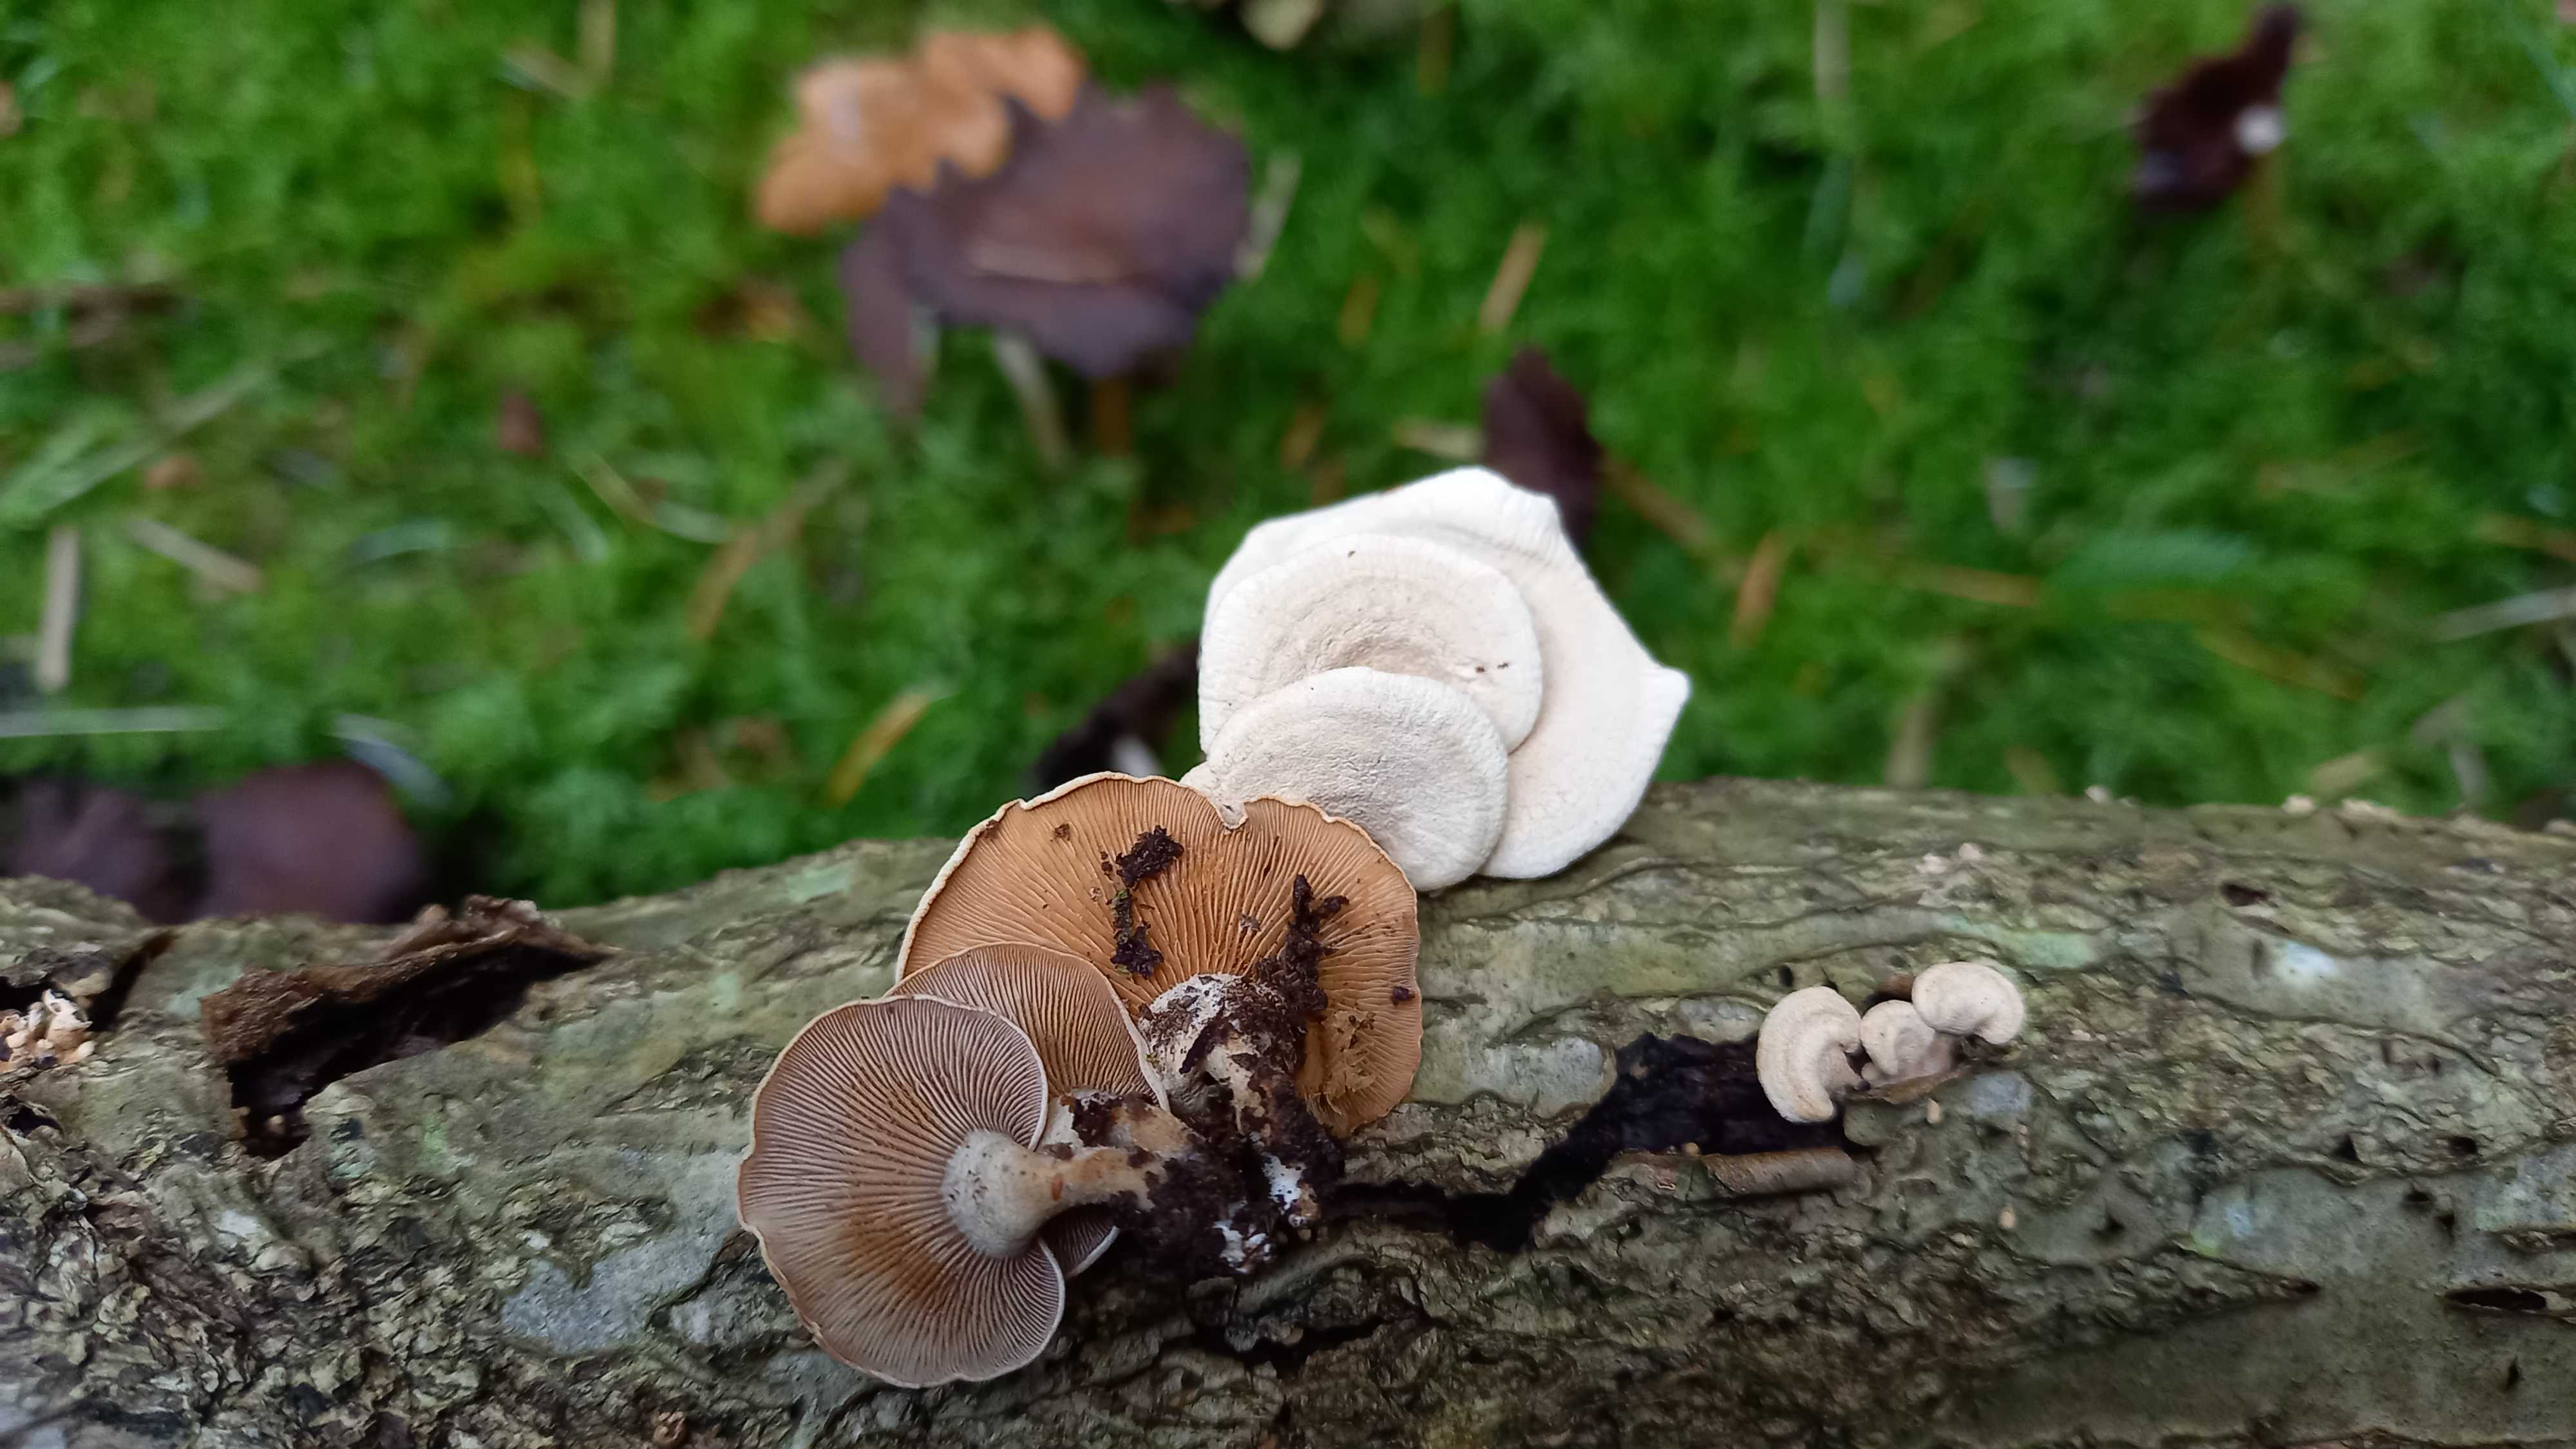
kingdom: Fungi
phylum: Basidiomycota
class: Agaricomycetes
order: Agaricales
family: Mycenaceae
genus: Panellus
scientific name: Panellus stipticus
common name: kliddet epaulethat
